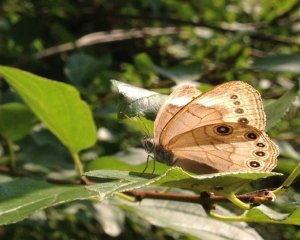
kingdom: Animalia
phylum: Arthropoda
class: Insecta
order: Lepidoptera
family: Nymphalidae
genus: Lethe
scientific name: Lethe eurydice
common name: Appalachian Eyed Brown
